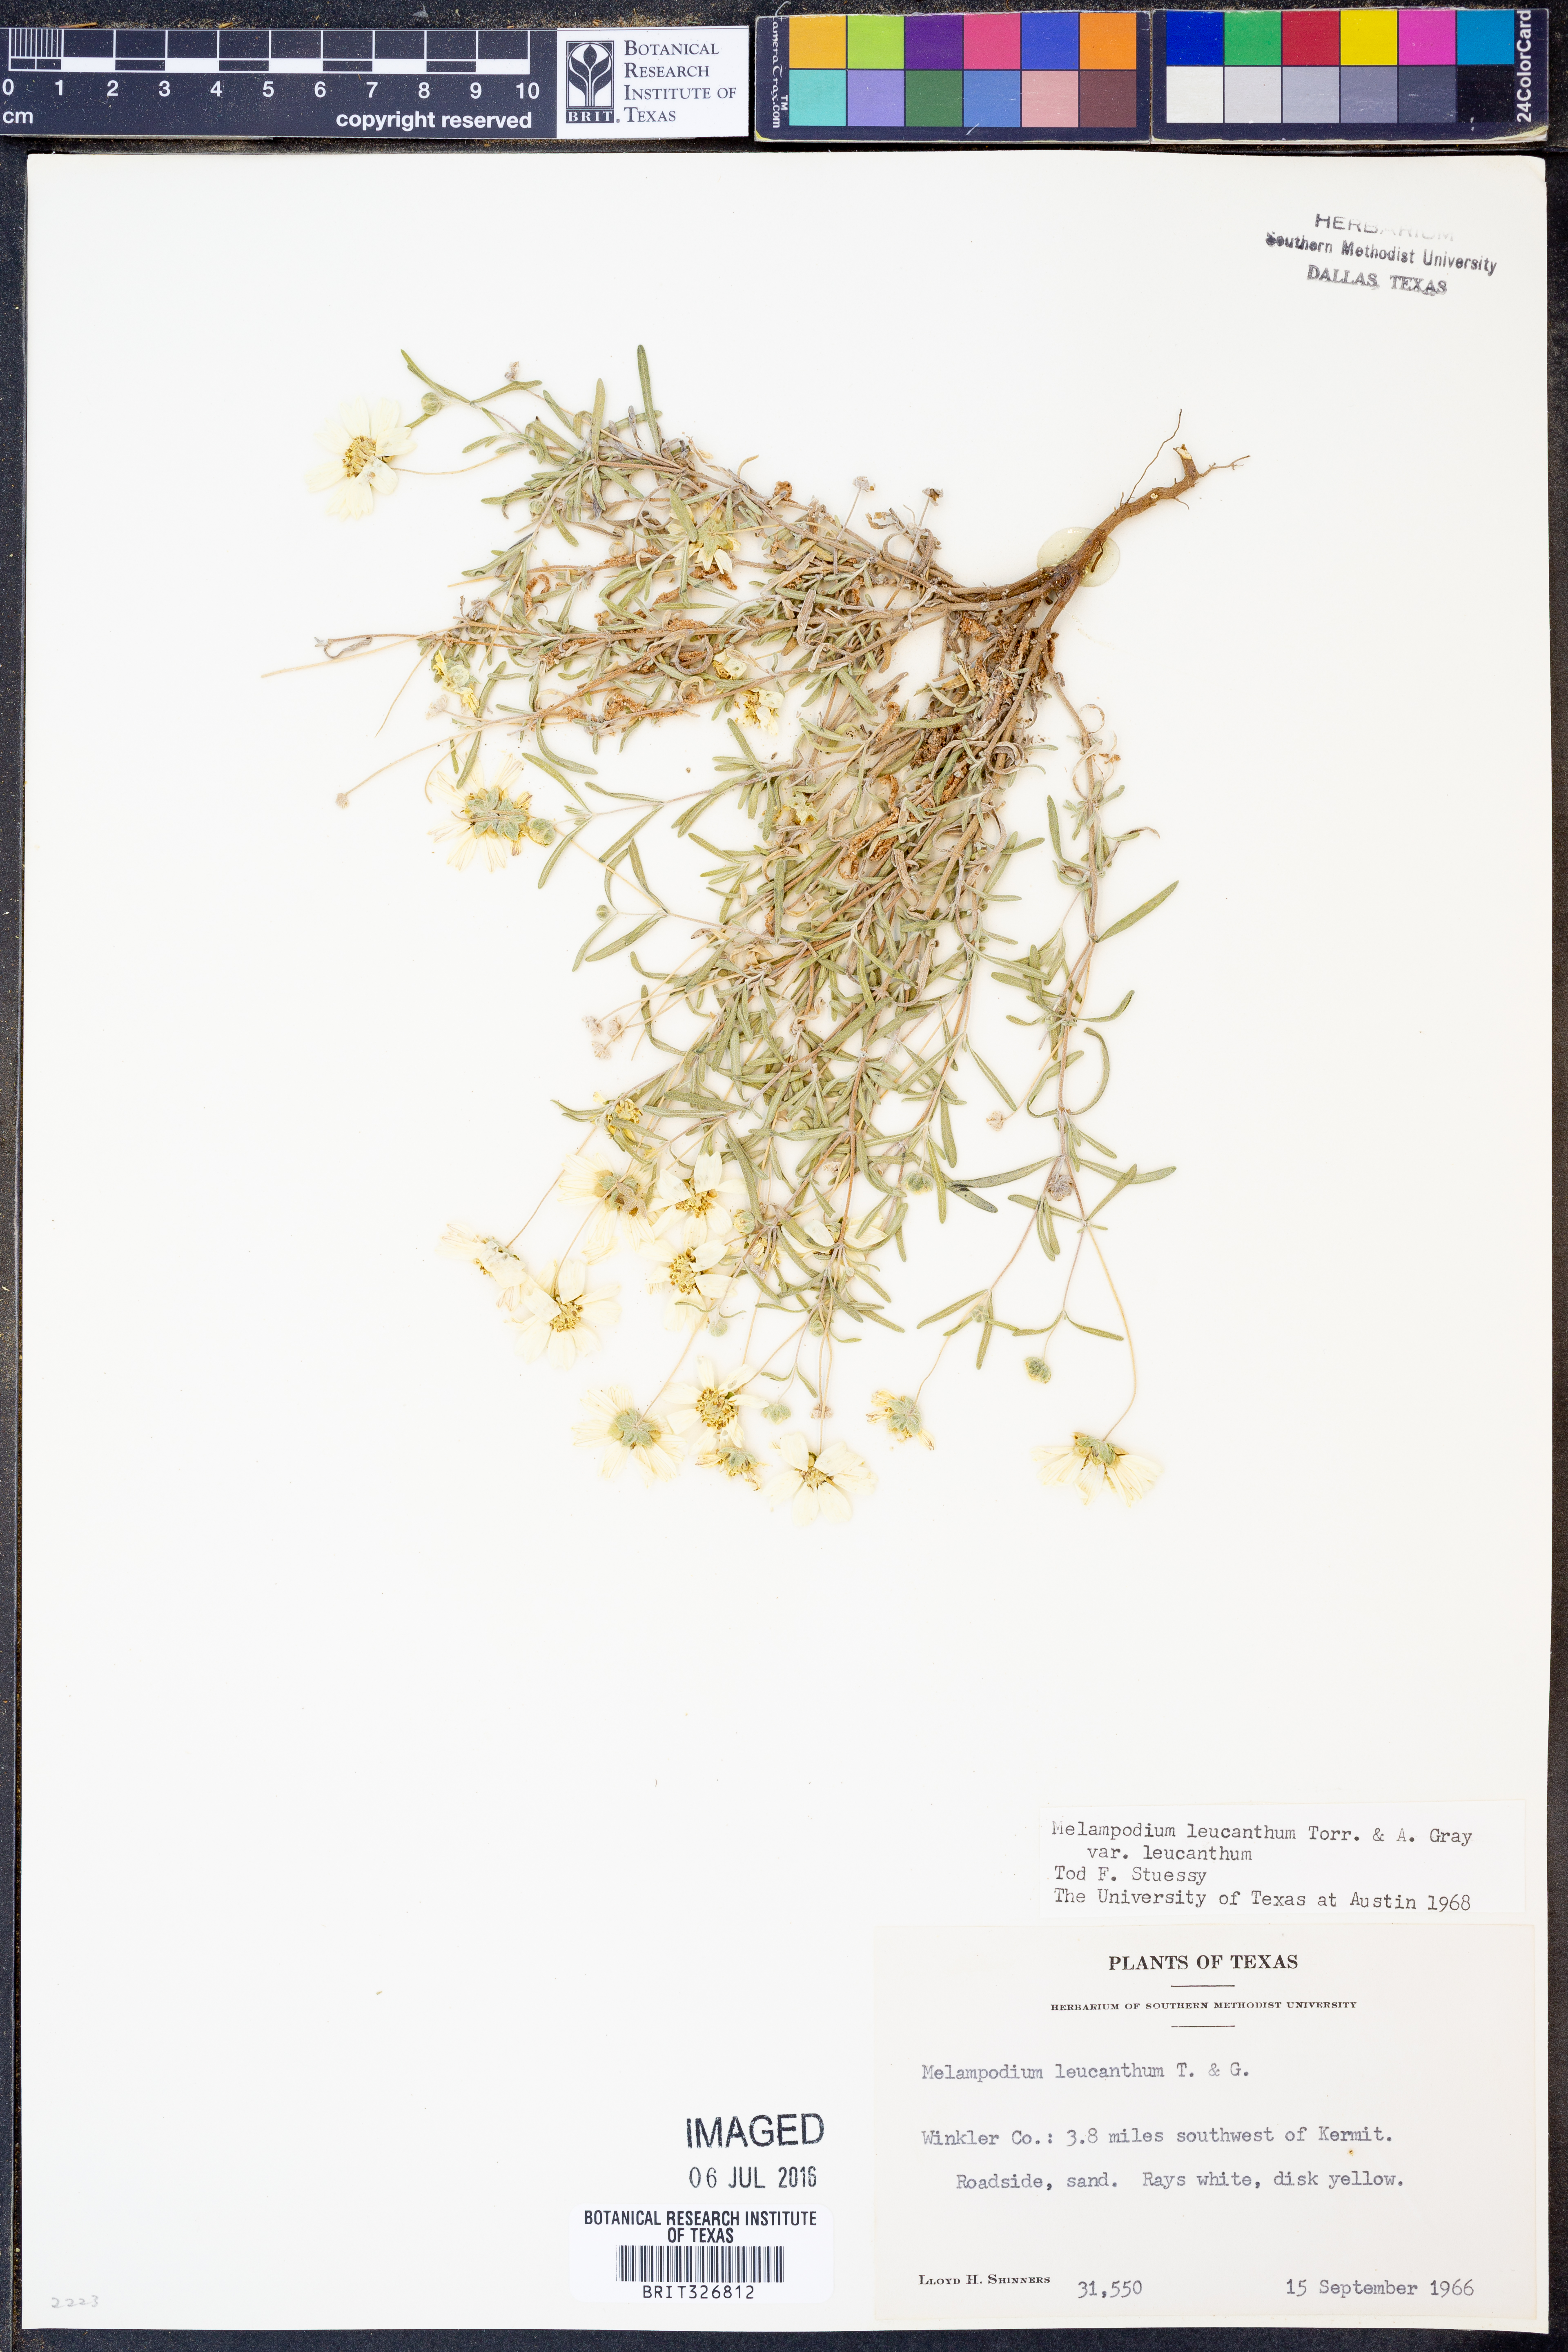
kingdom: Plantae
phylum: Tracheophyta
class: Magnoliopsida
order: Asterales
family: Asteraceae
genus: Melampodium
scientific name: Melampodium leucanthum
